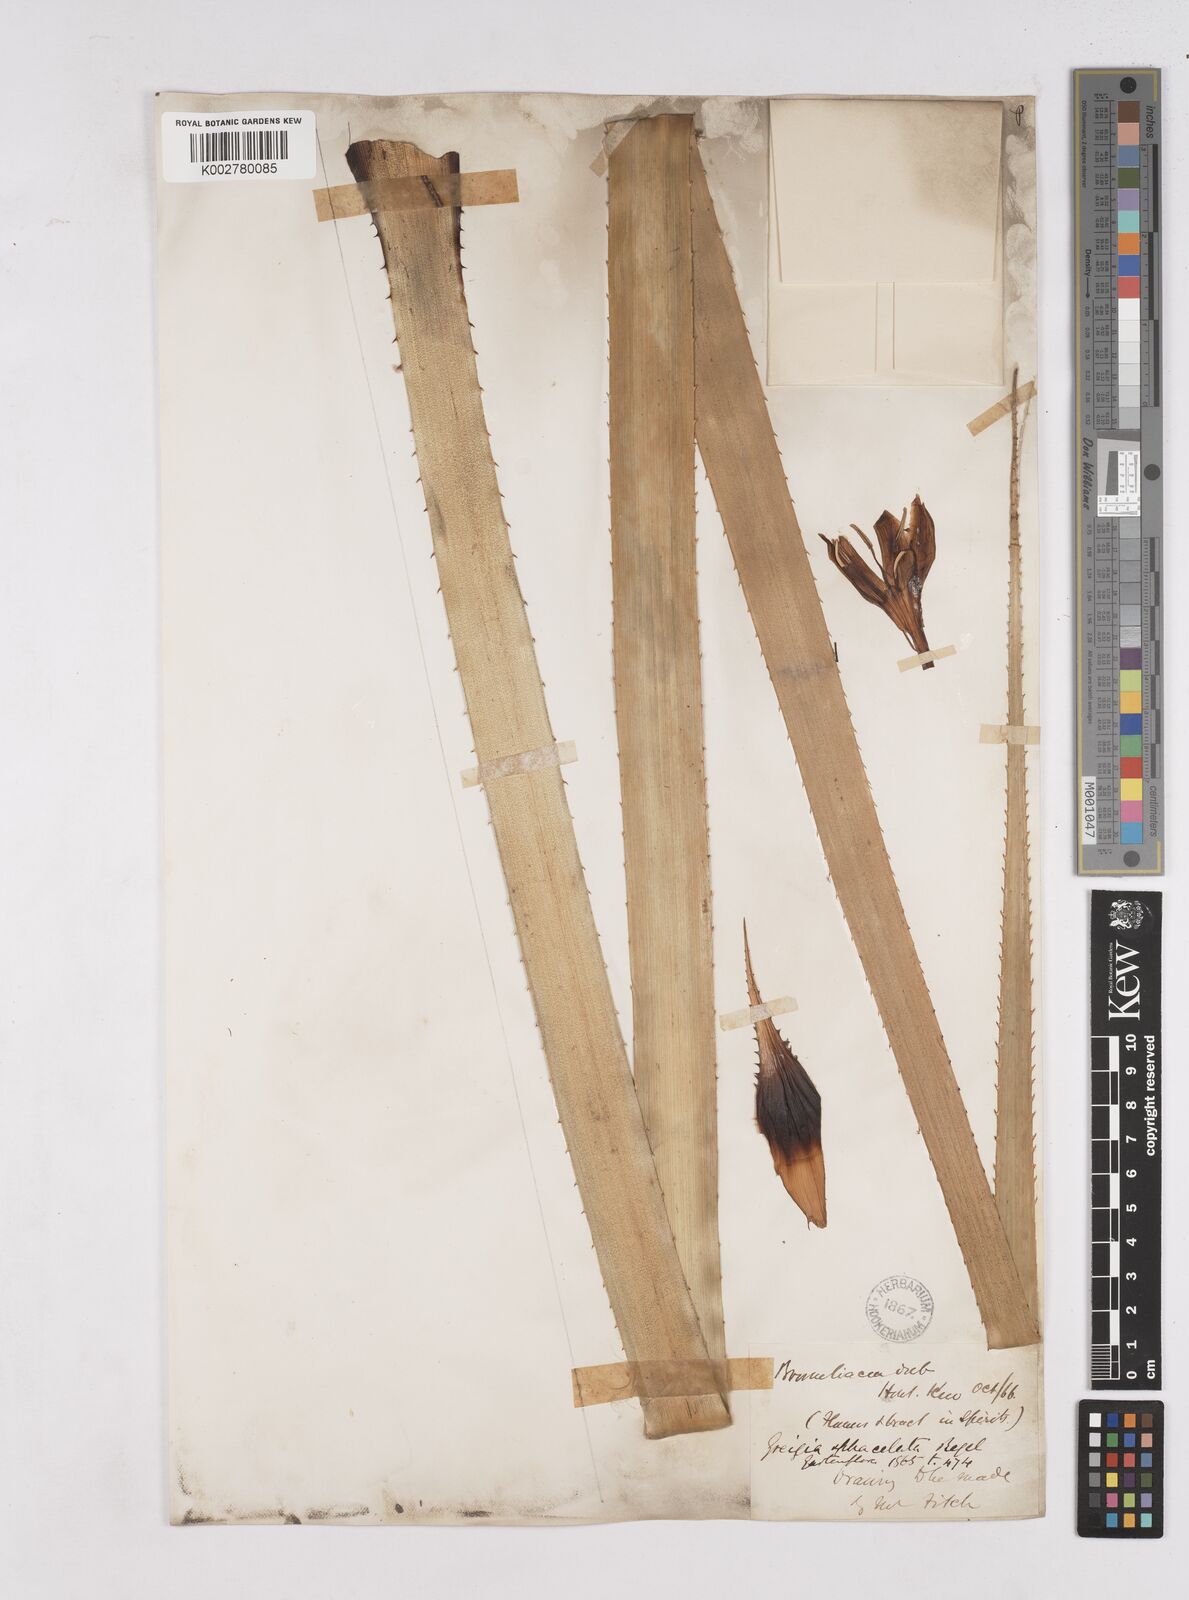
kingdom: Plantae
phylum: Tracheophyta
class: Liliopsida
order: Poales
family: Bromeliaceae
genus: Greigia
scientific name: Greigia sphacelata
